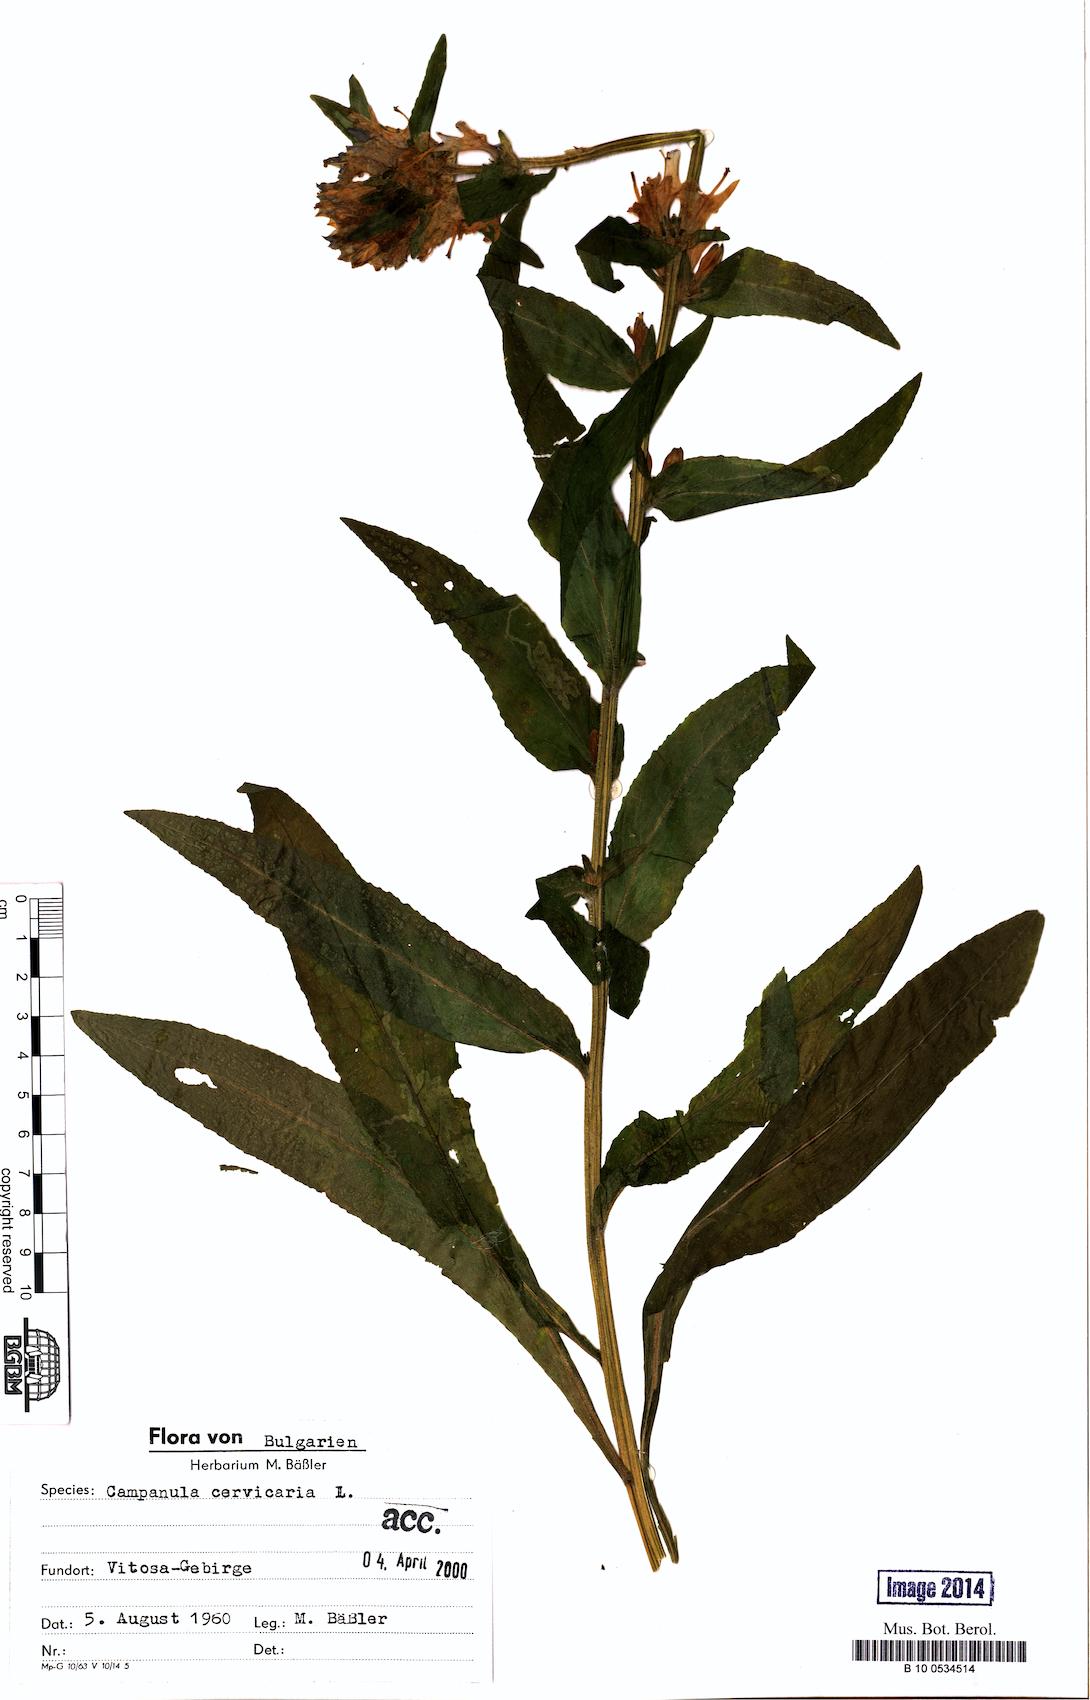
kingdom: Plantae
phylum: Tracheophyta
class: Magnoliopsida
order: Asterales
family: Campanulaceae
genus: Campanula
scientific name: Campanula cervicaria
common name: Bristly bellflower
